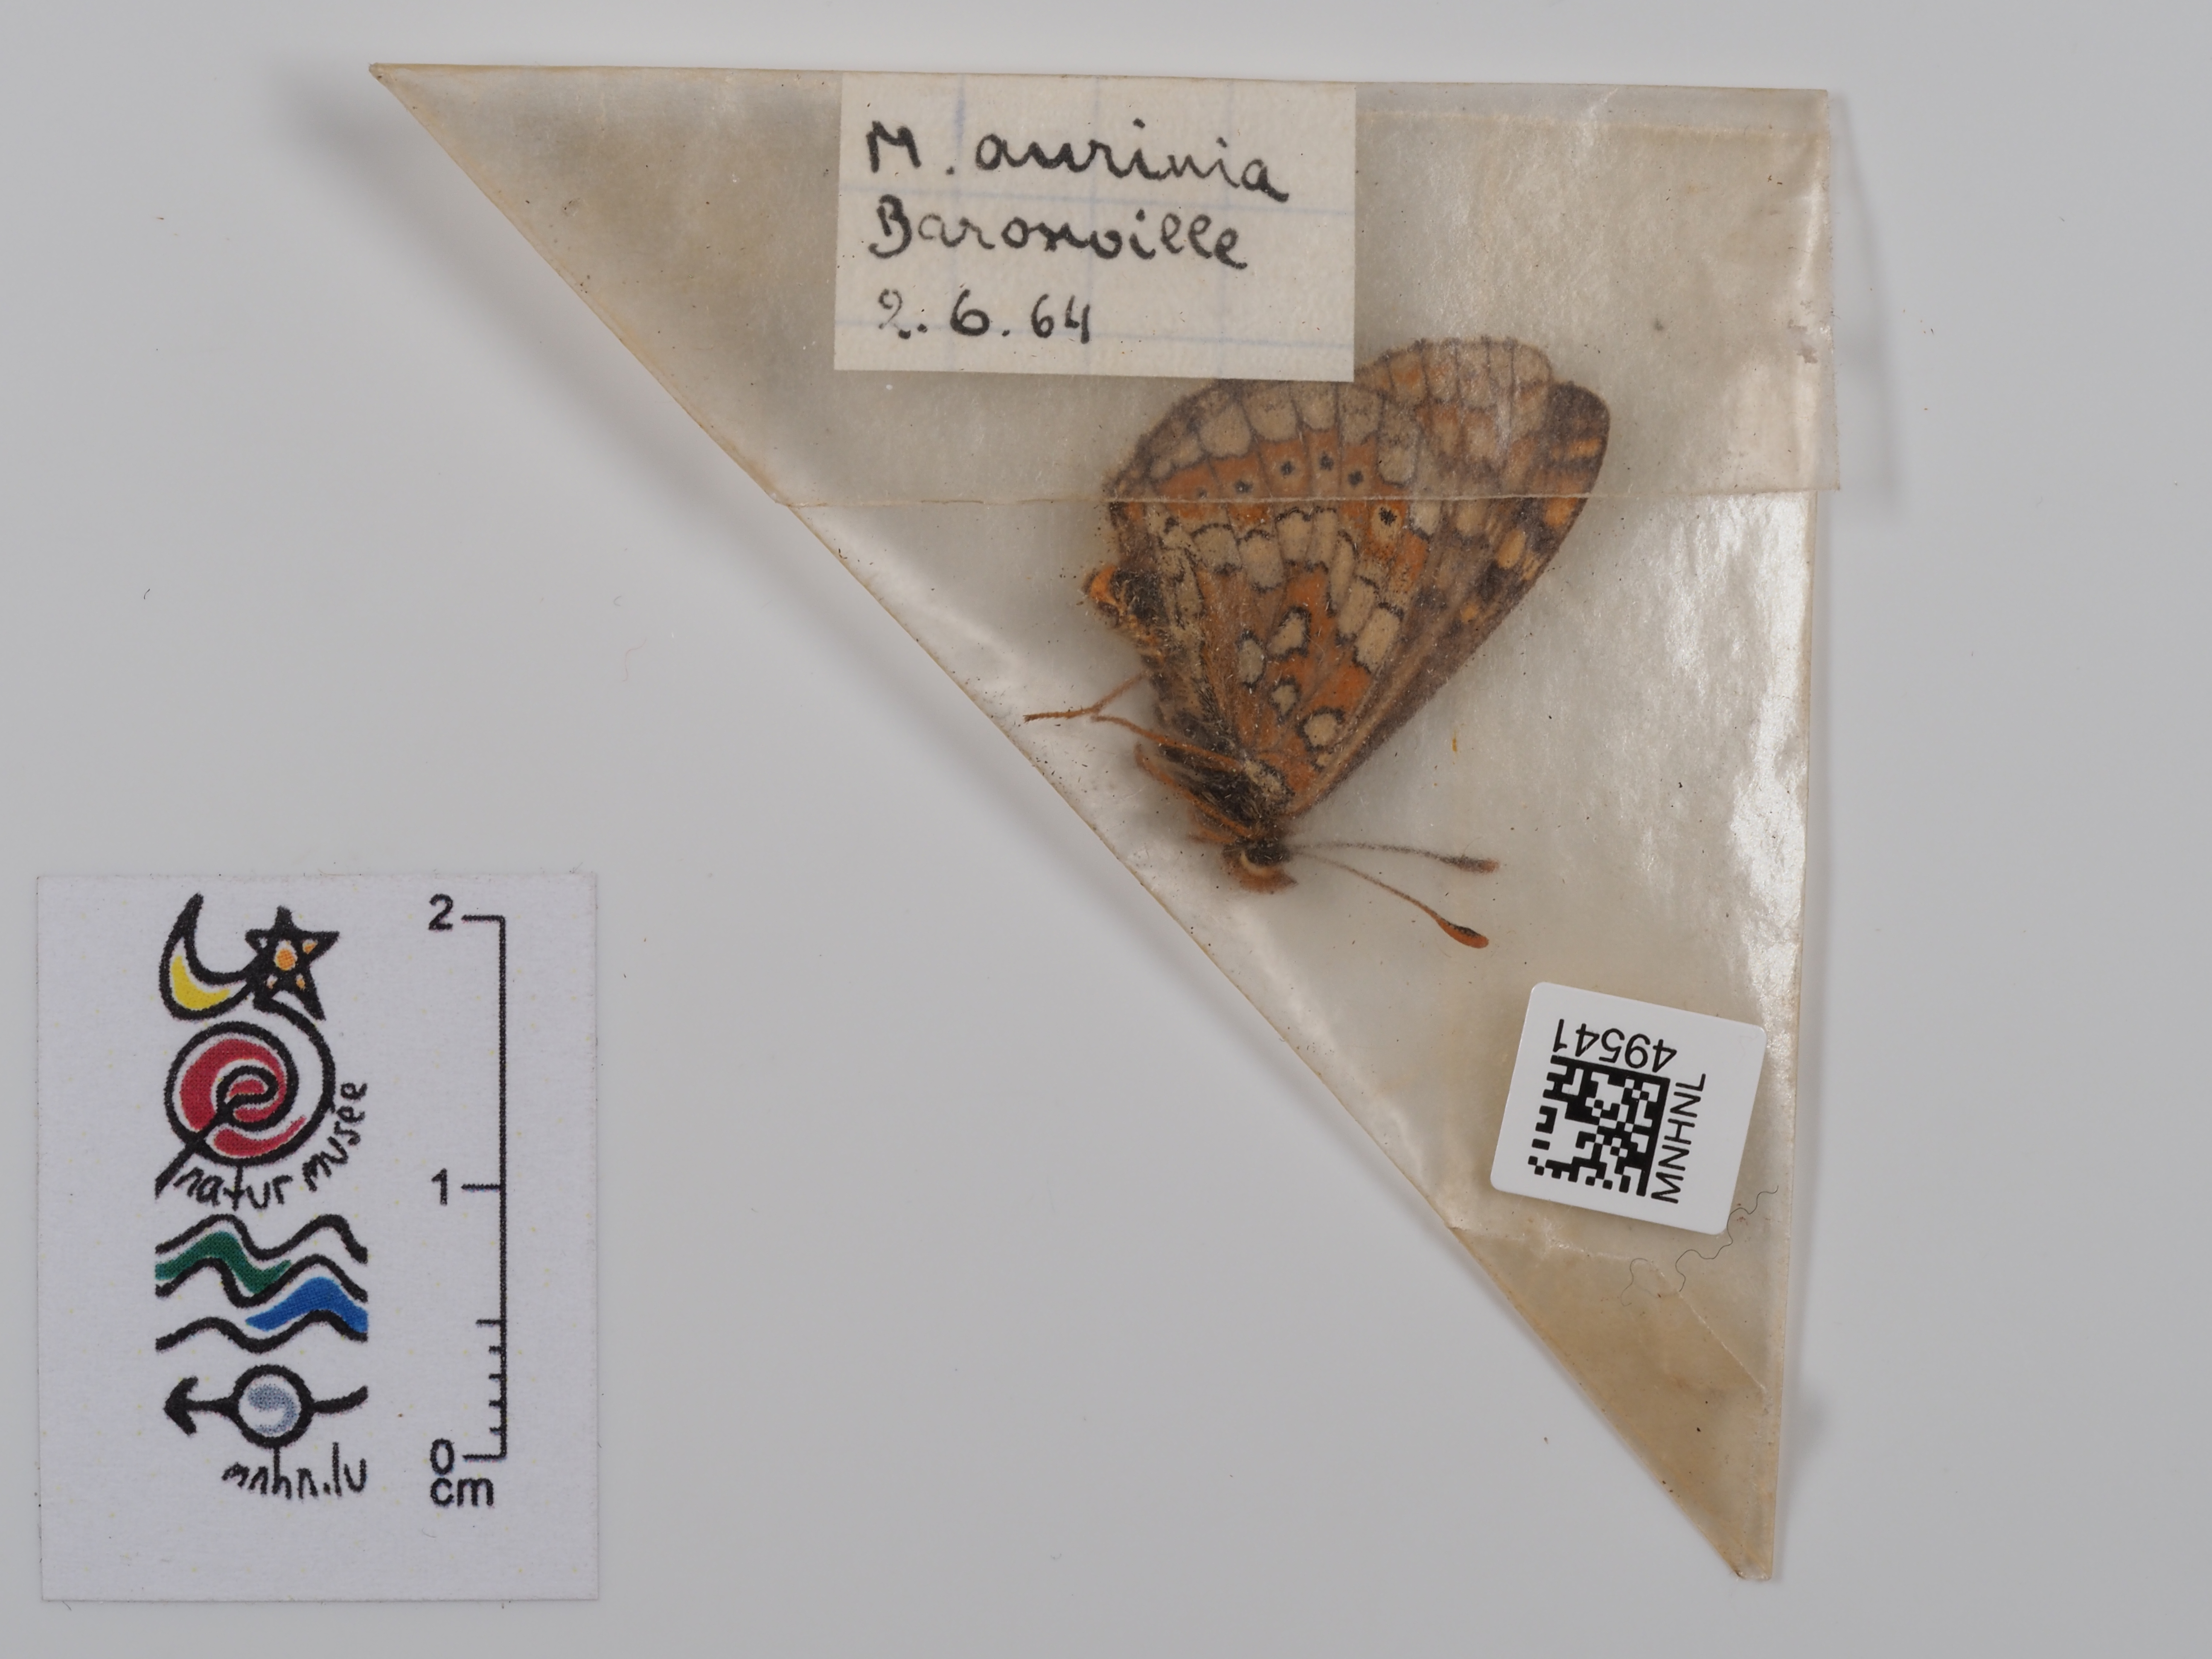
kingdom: Animalia
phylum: Arthropoda
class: Insecta
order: Lepidoptera
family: Nymphalidae
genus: Eurodryas
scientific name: Eurodryas aurinia
